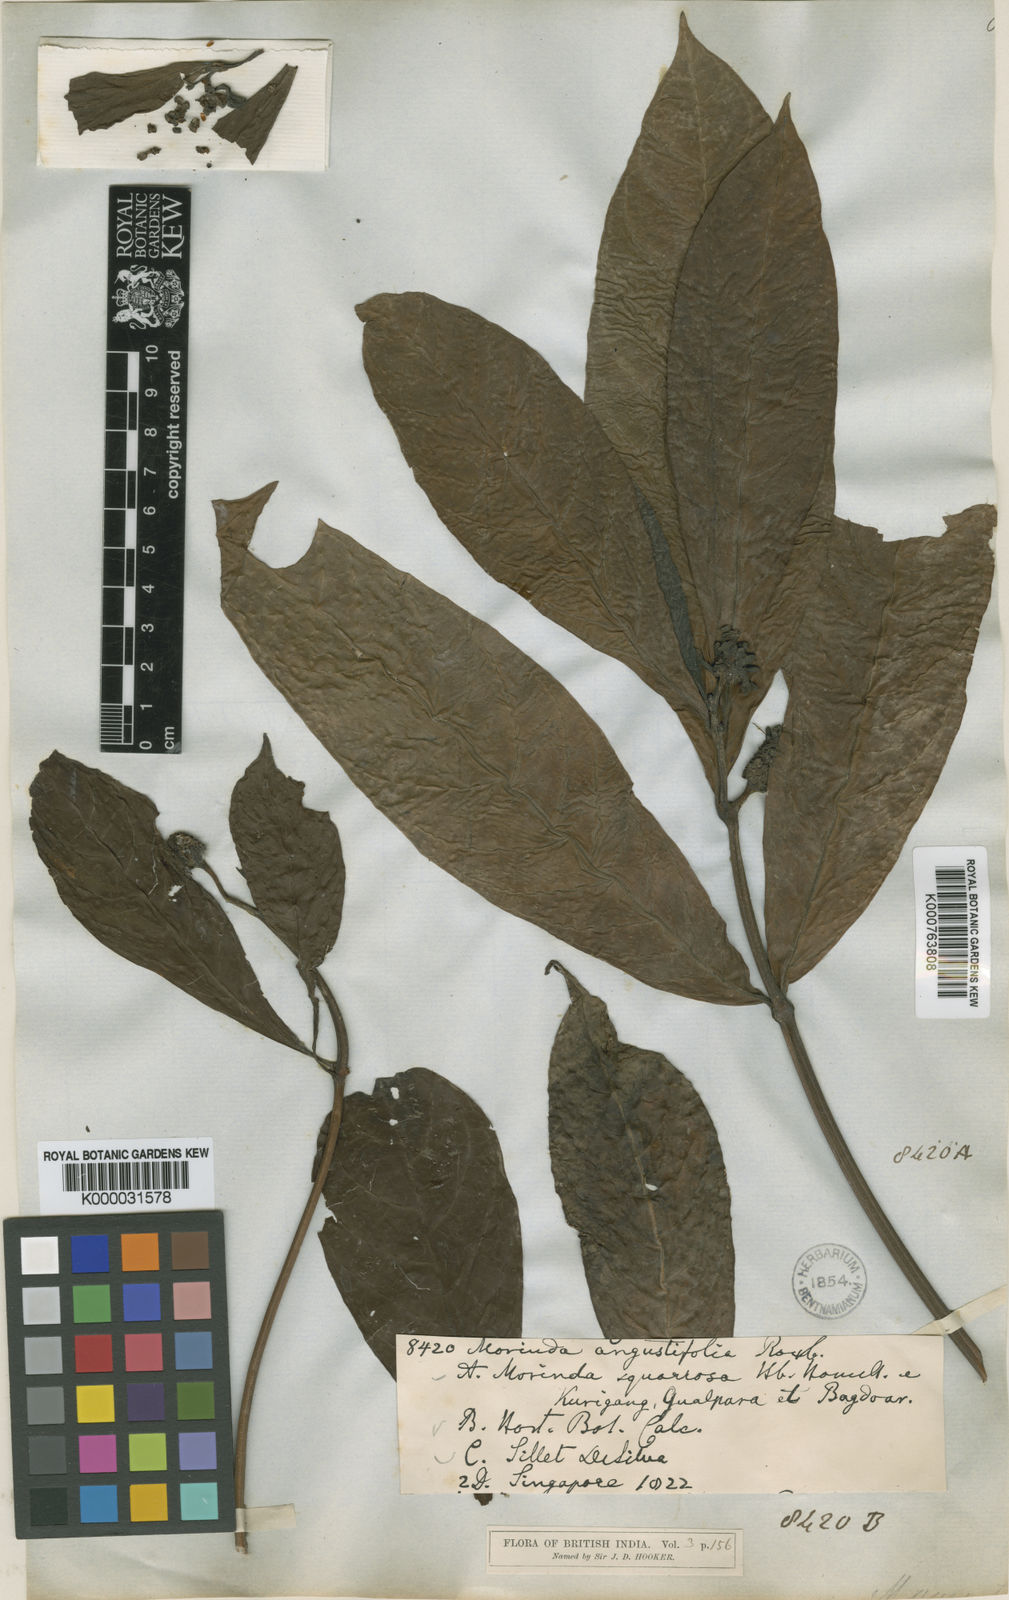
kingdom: Plantae
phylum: Tracheophyta
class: Magnoliopsida
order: Gentianales
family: Rubiaceae
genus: Morinda
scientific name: Morinda angustifolia
